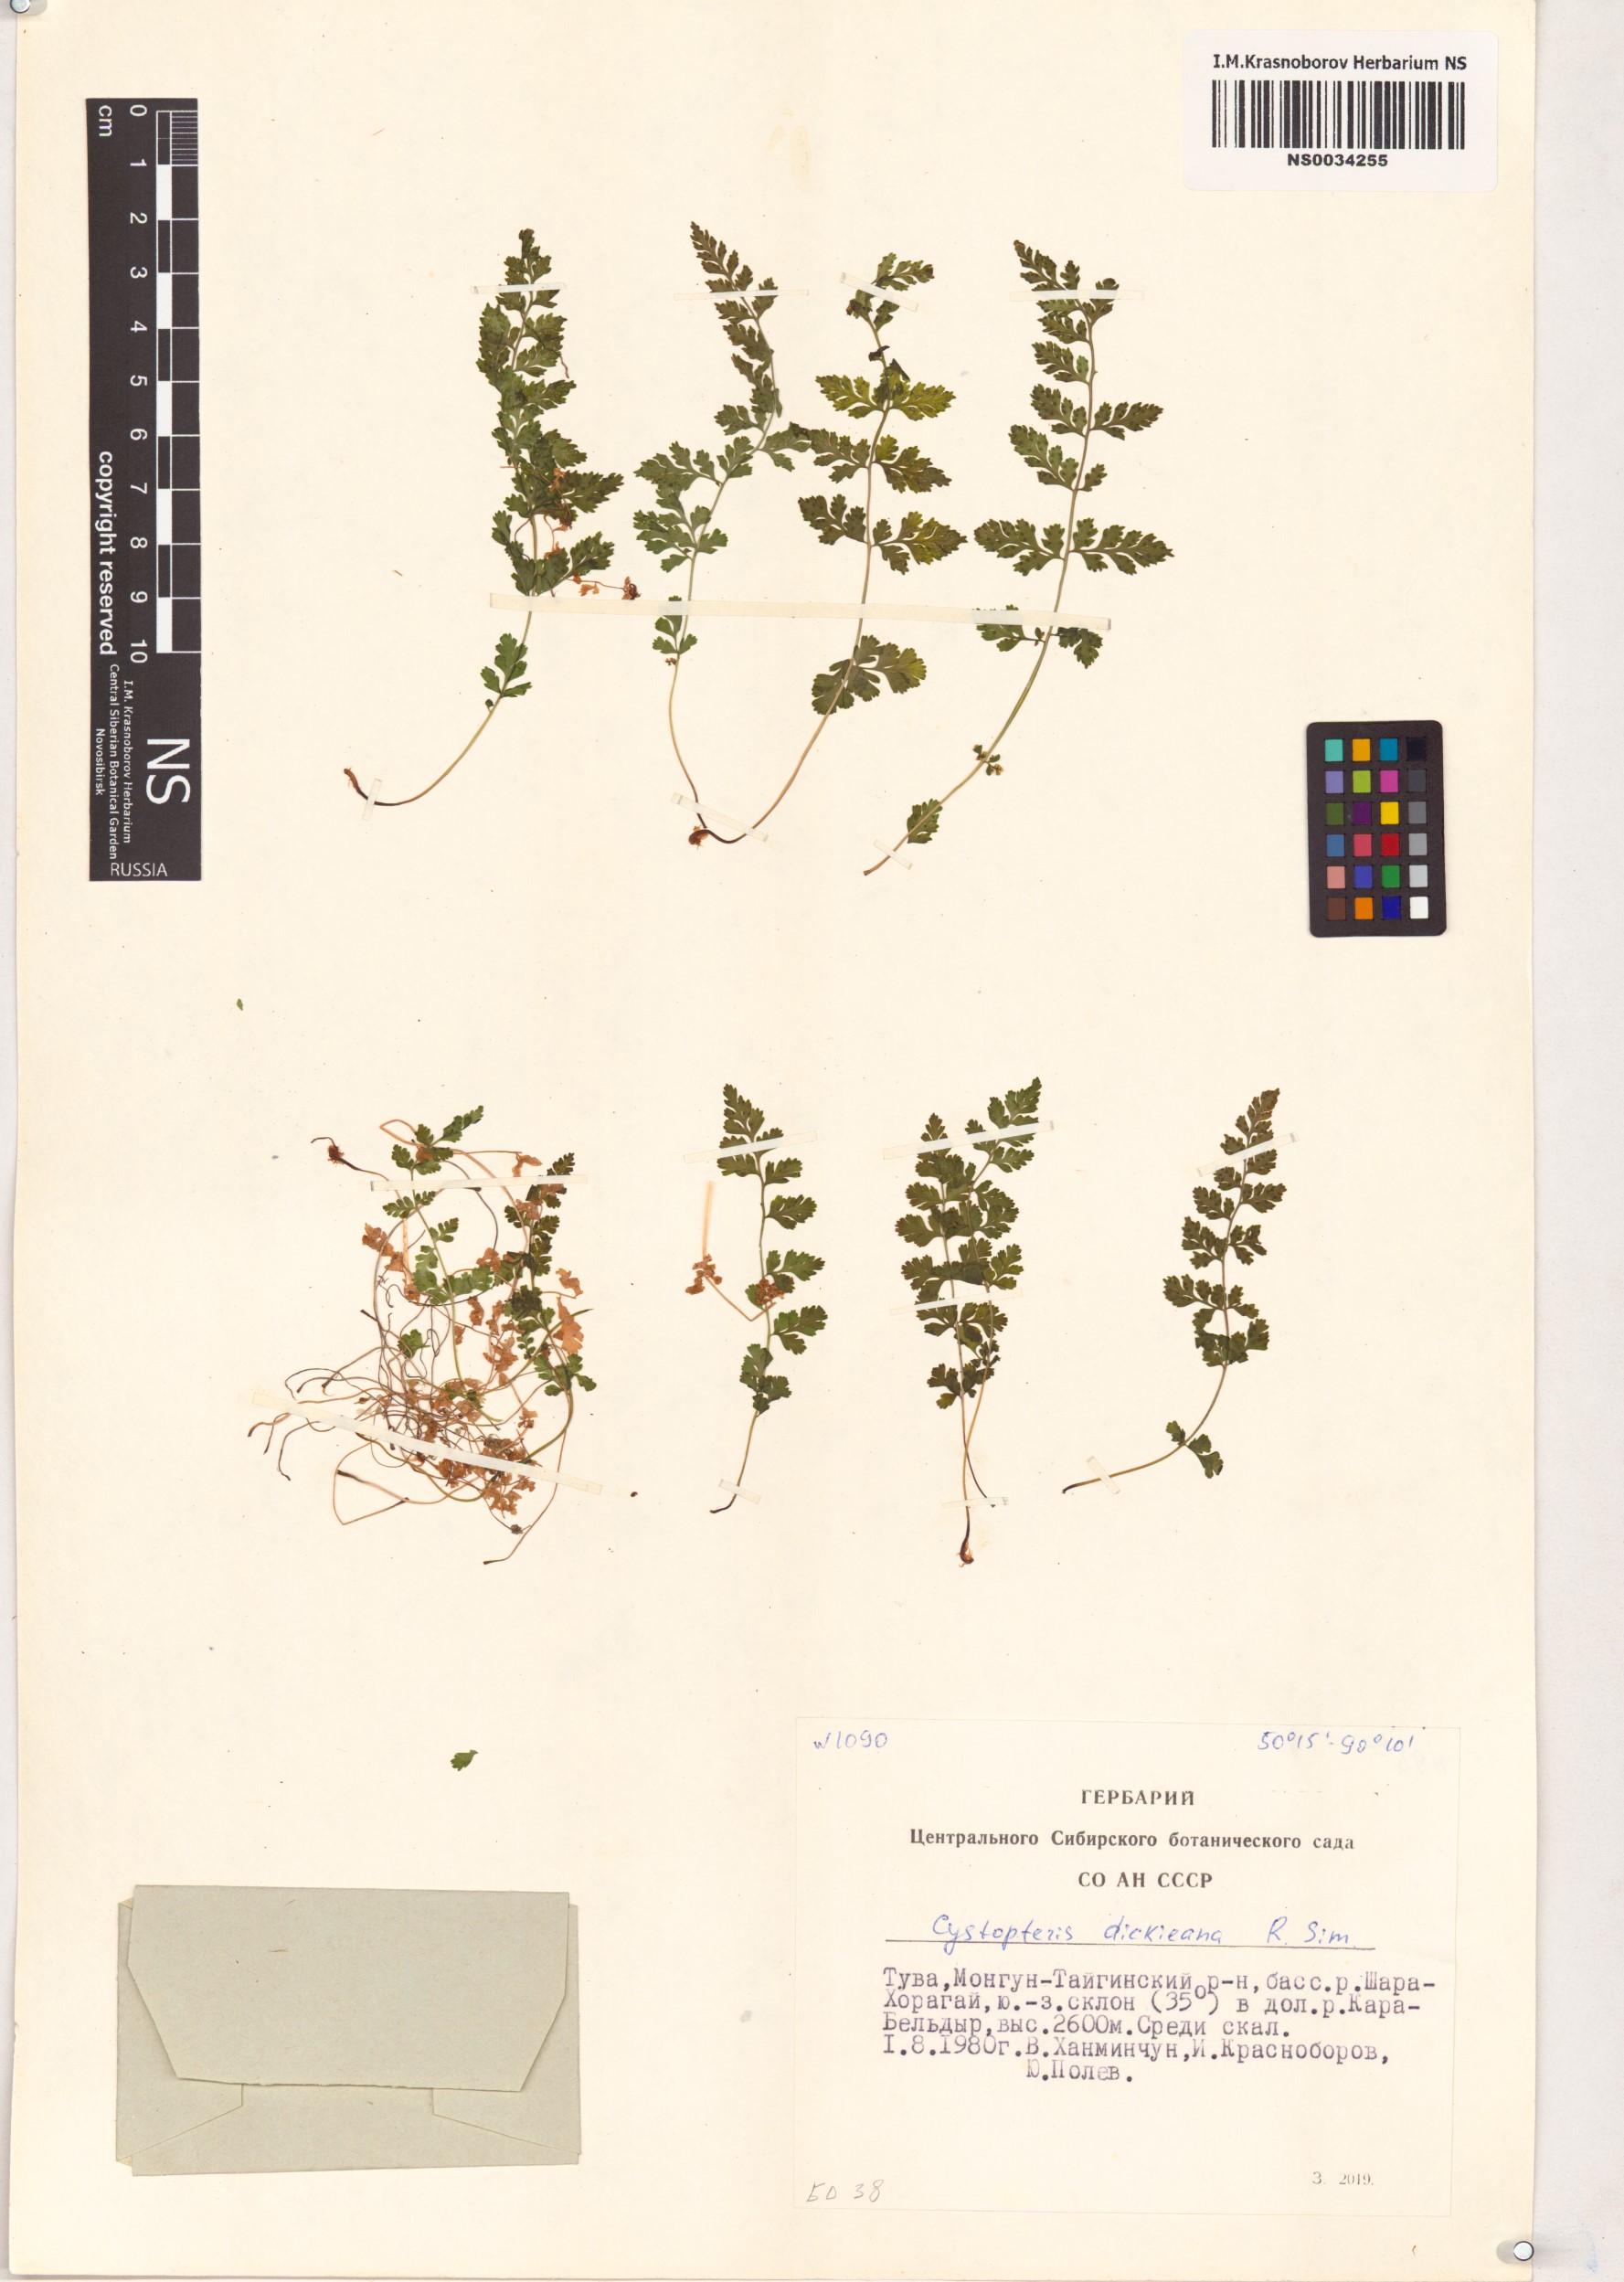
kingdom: Plantae
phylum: Tracheophyta
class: Polypodiopsida
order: Polypodiales
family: Cystopteridaceae
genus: Cystopteris
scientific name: Cystopteris dickieana
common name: Dickie's bladder-fern
